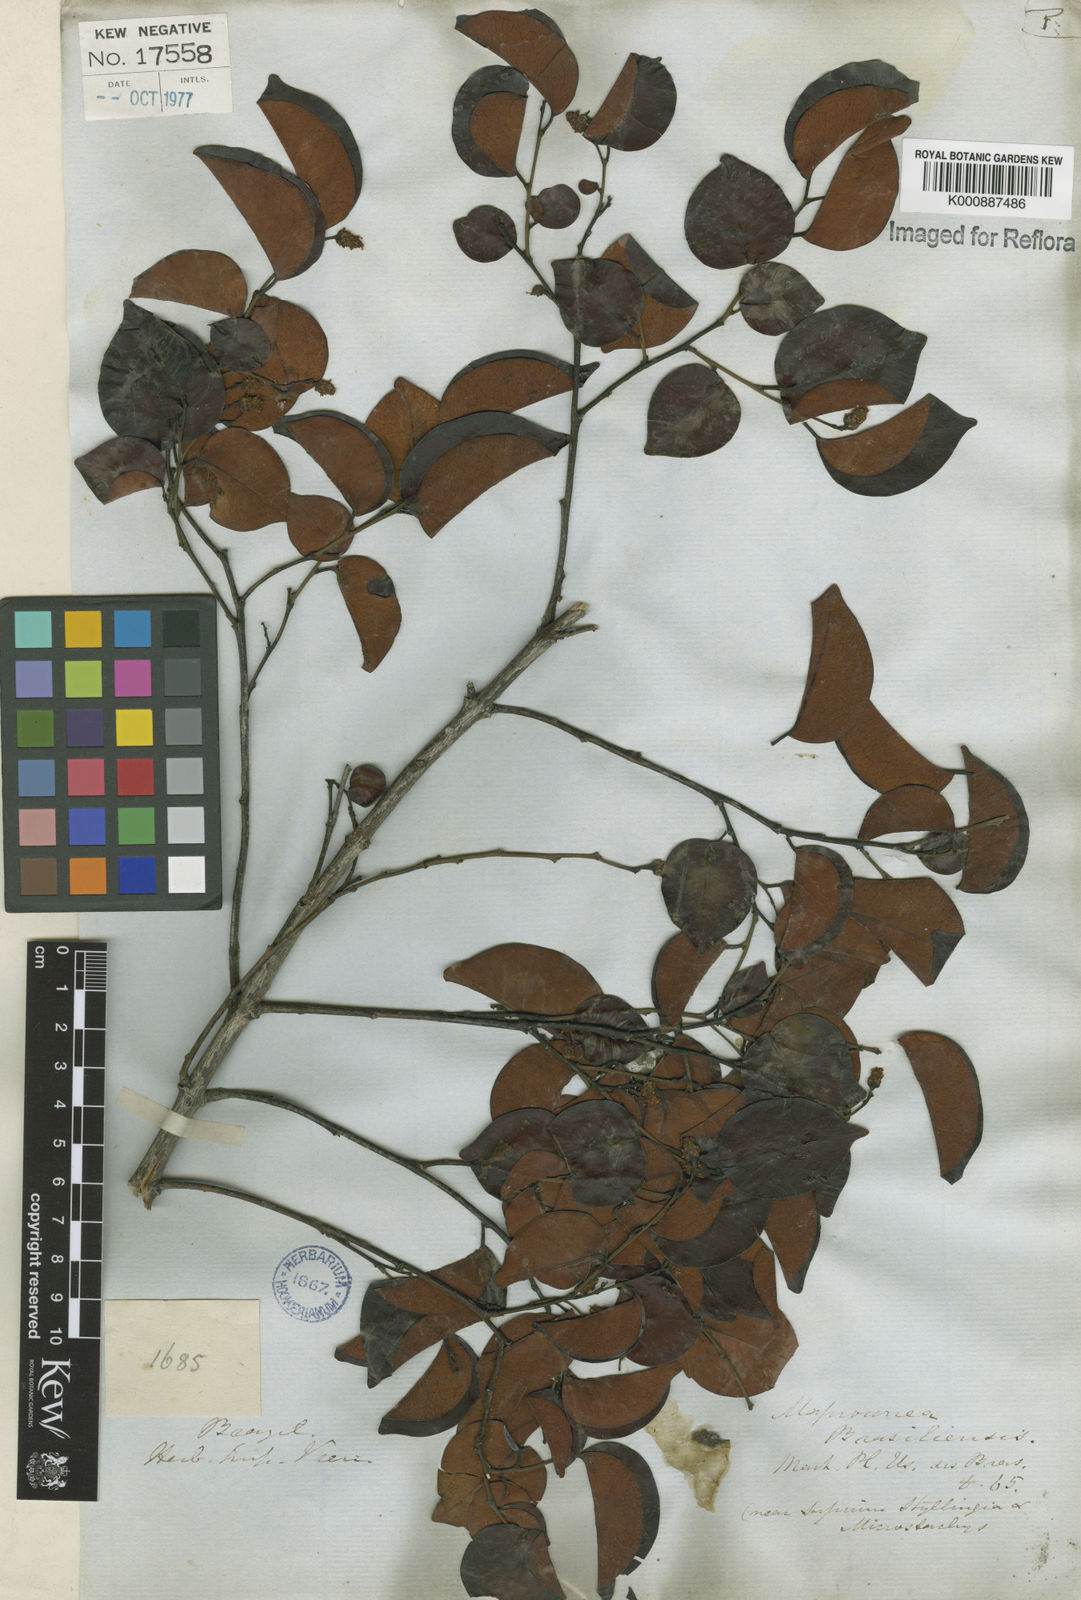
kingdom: Plantae
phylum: Tracheophyta
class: Magnoliopsida
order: Malpighiales
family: Euphorbiaceae
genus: Maprounea
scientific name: Maprounea brasiliensis
